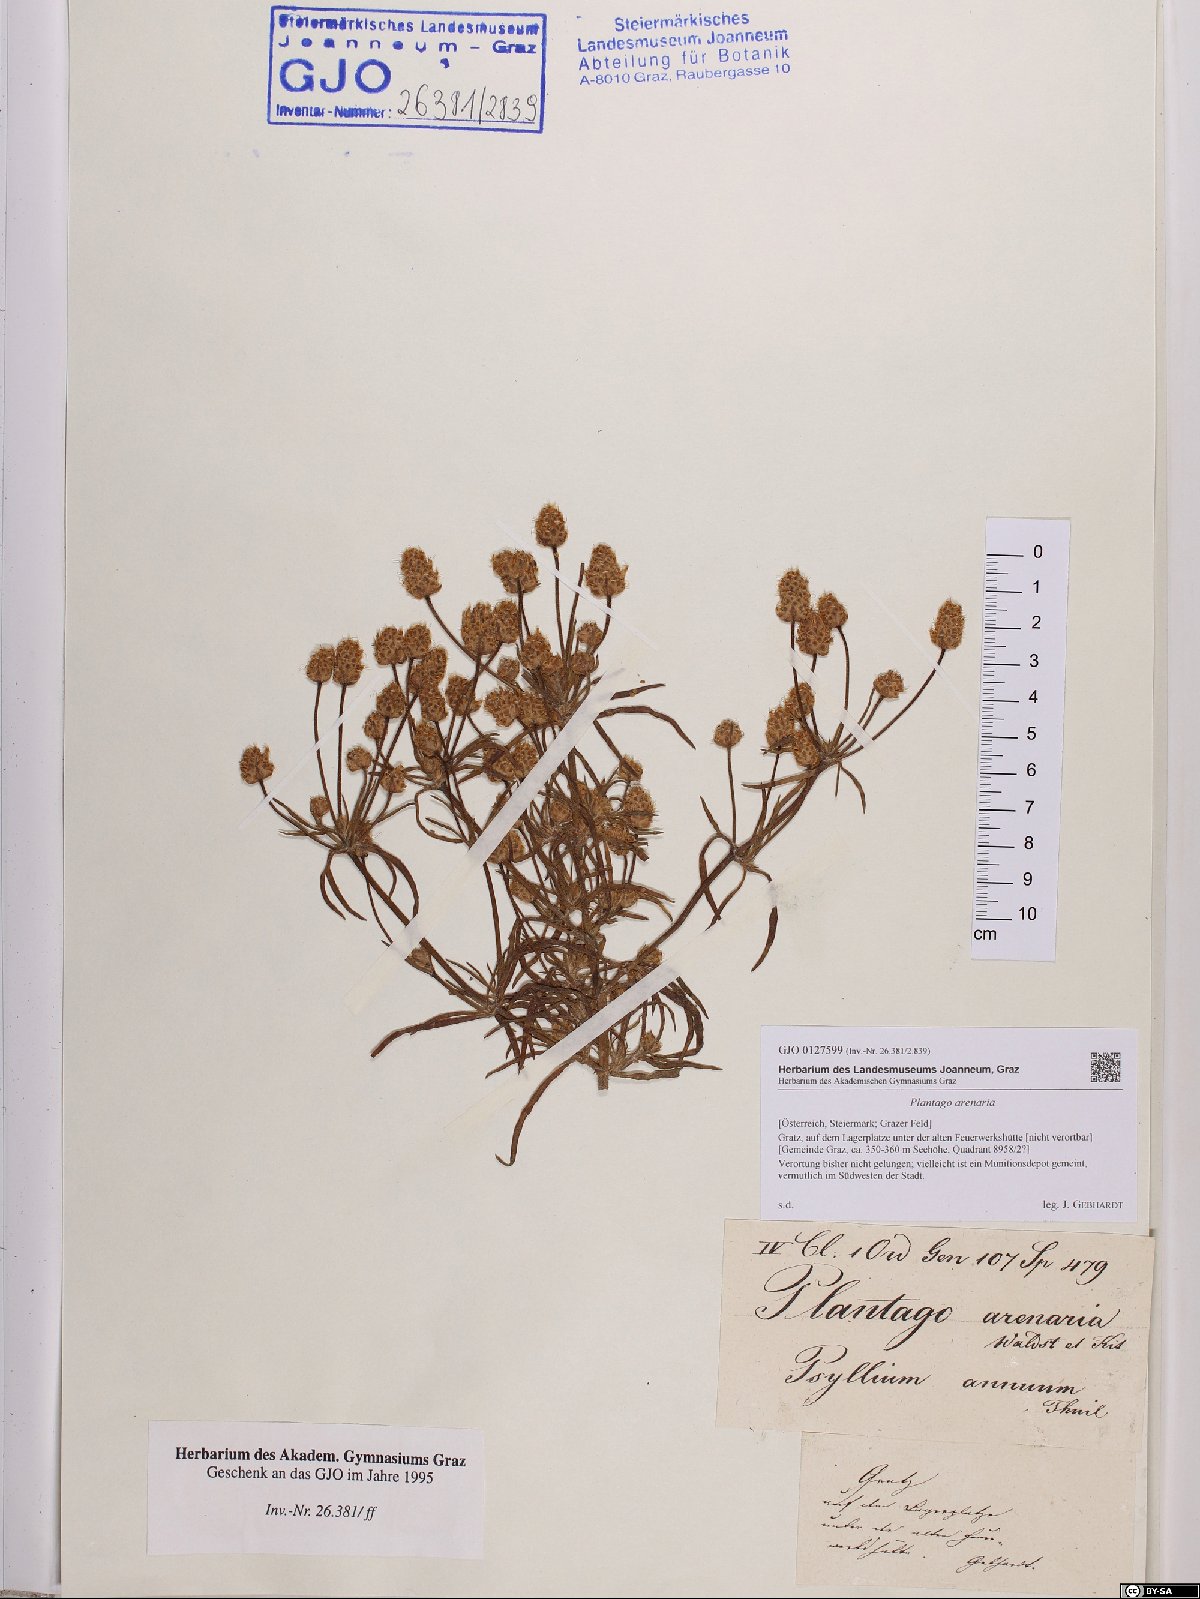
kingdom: Plantae
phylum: Tracheophyta
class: Magnoliopsida
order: Lamiales
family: Plantaginaceae
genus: Plantago
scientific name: Plantago arenaria
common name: Branched plantain
